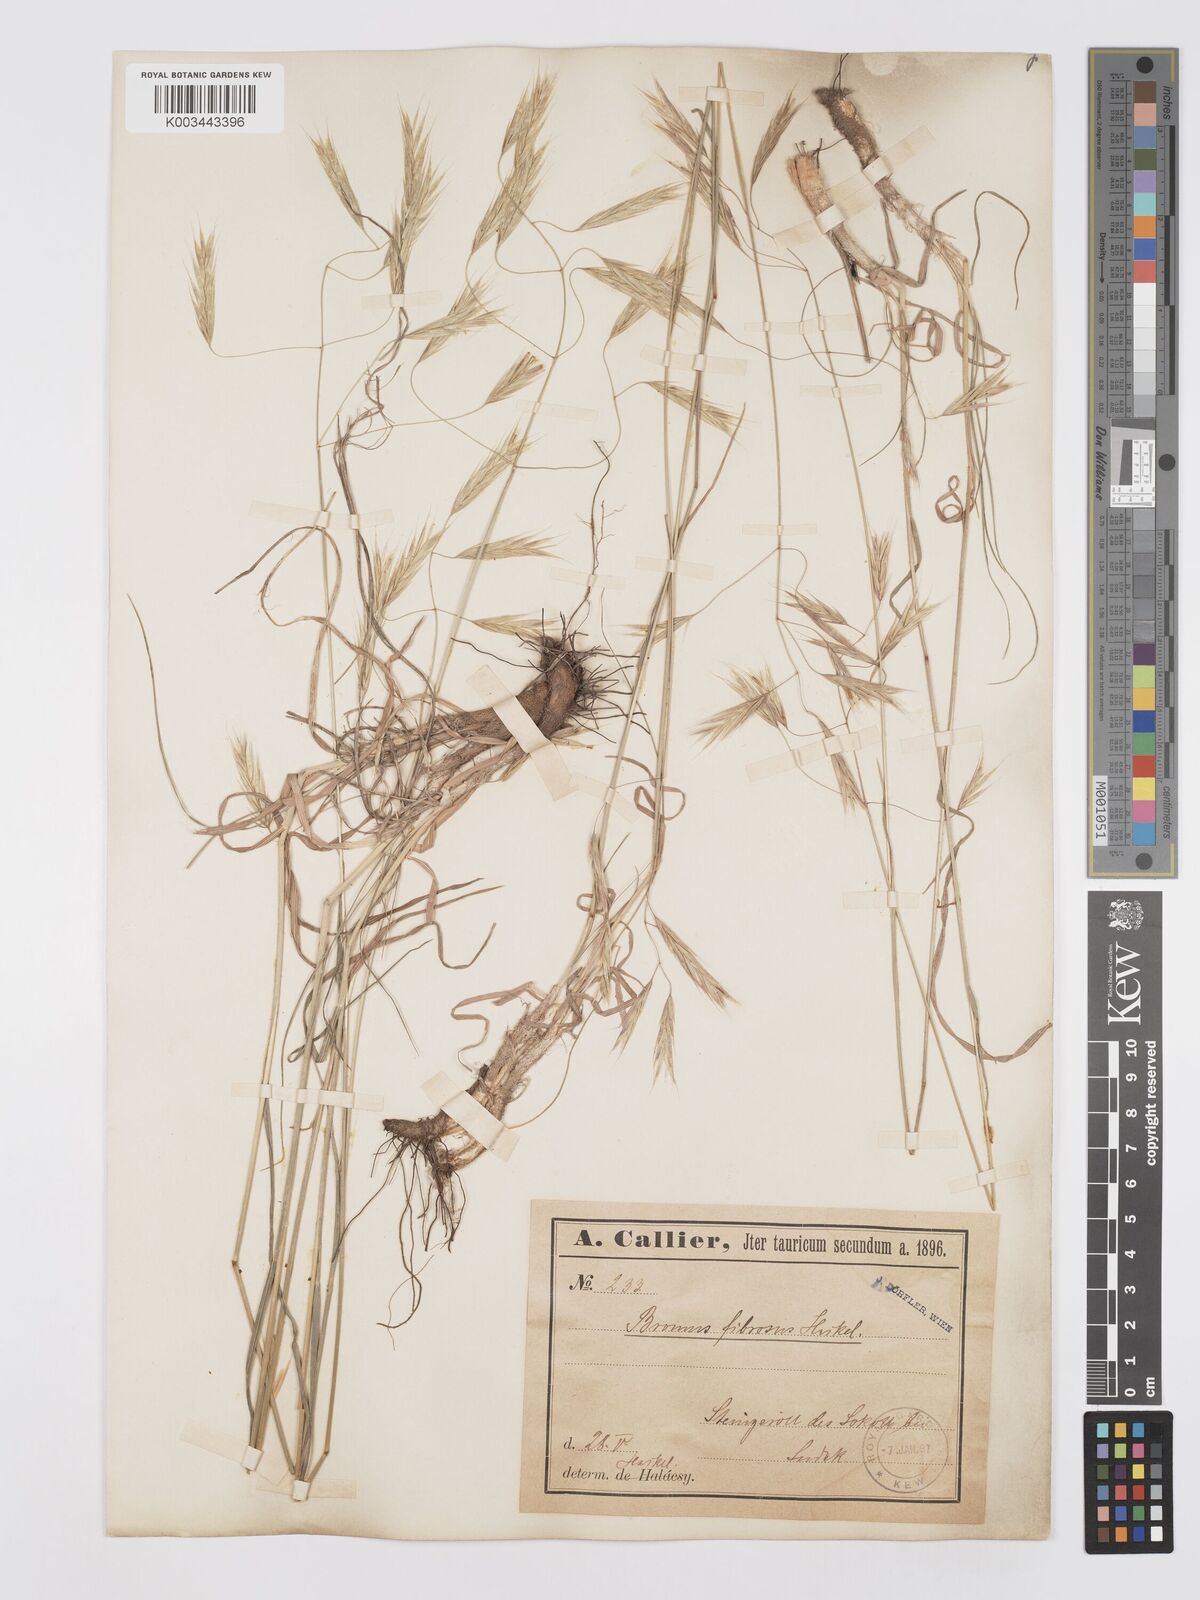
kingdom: Plantae
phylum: Tracheophyta
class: Liliopsida
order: Poales
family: Poaceae
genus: Bromus
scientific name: Bromus riparius
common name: Meadow brome
